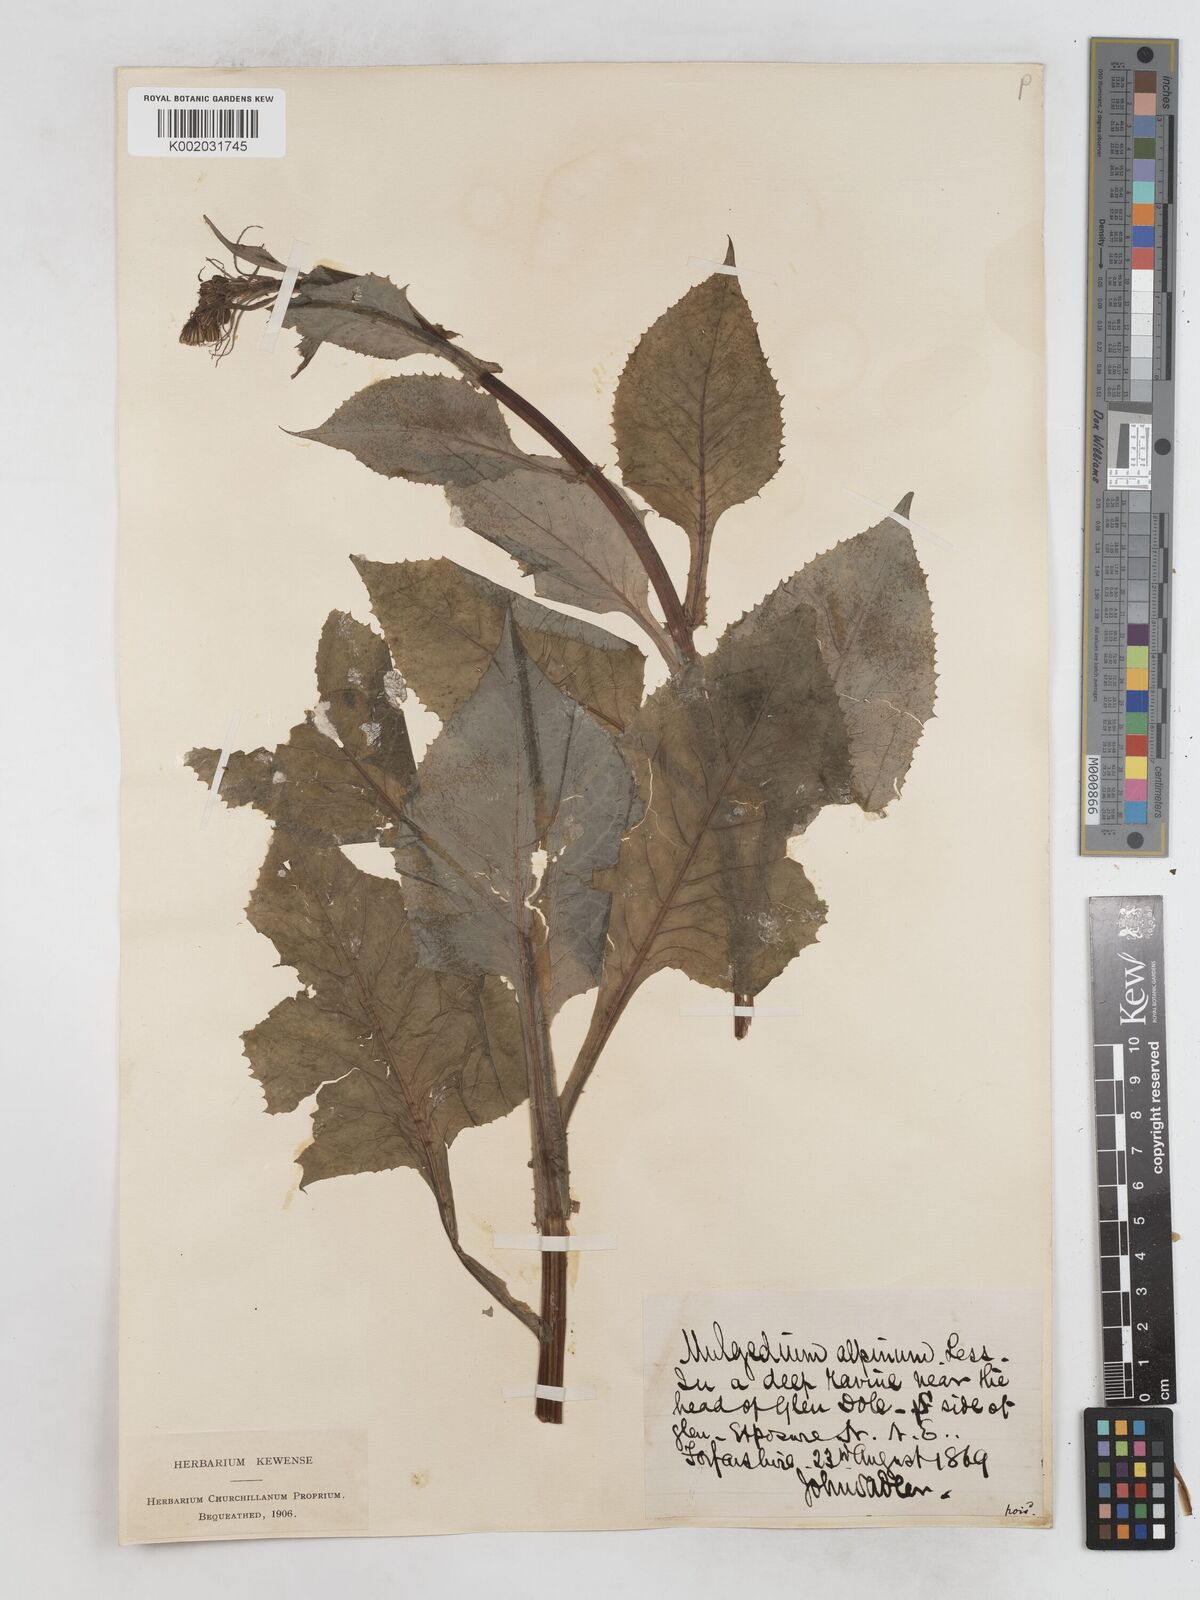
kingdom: Plantae
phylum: Tracheophyta
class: Magnoliopsida
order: Asterales
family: Asteraceae
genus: Cicerbita
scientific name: Cicerbita alpina
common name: Alpine blue-sow-thistle
